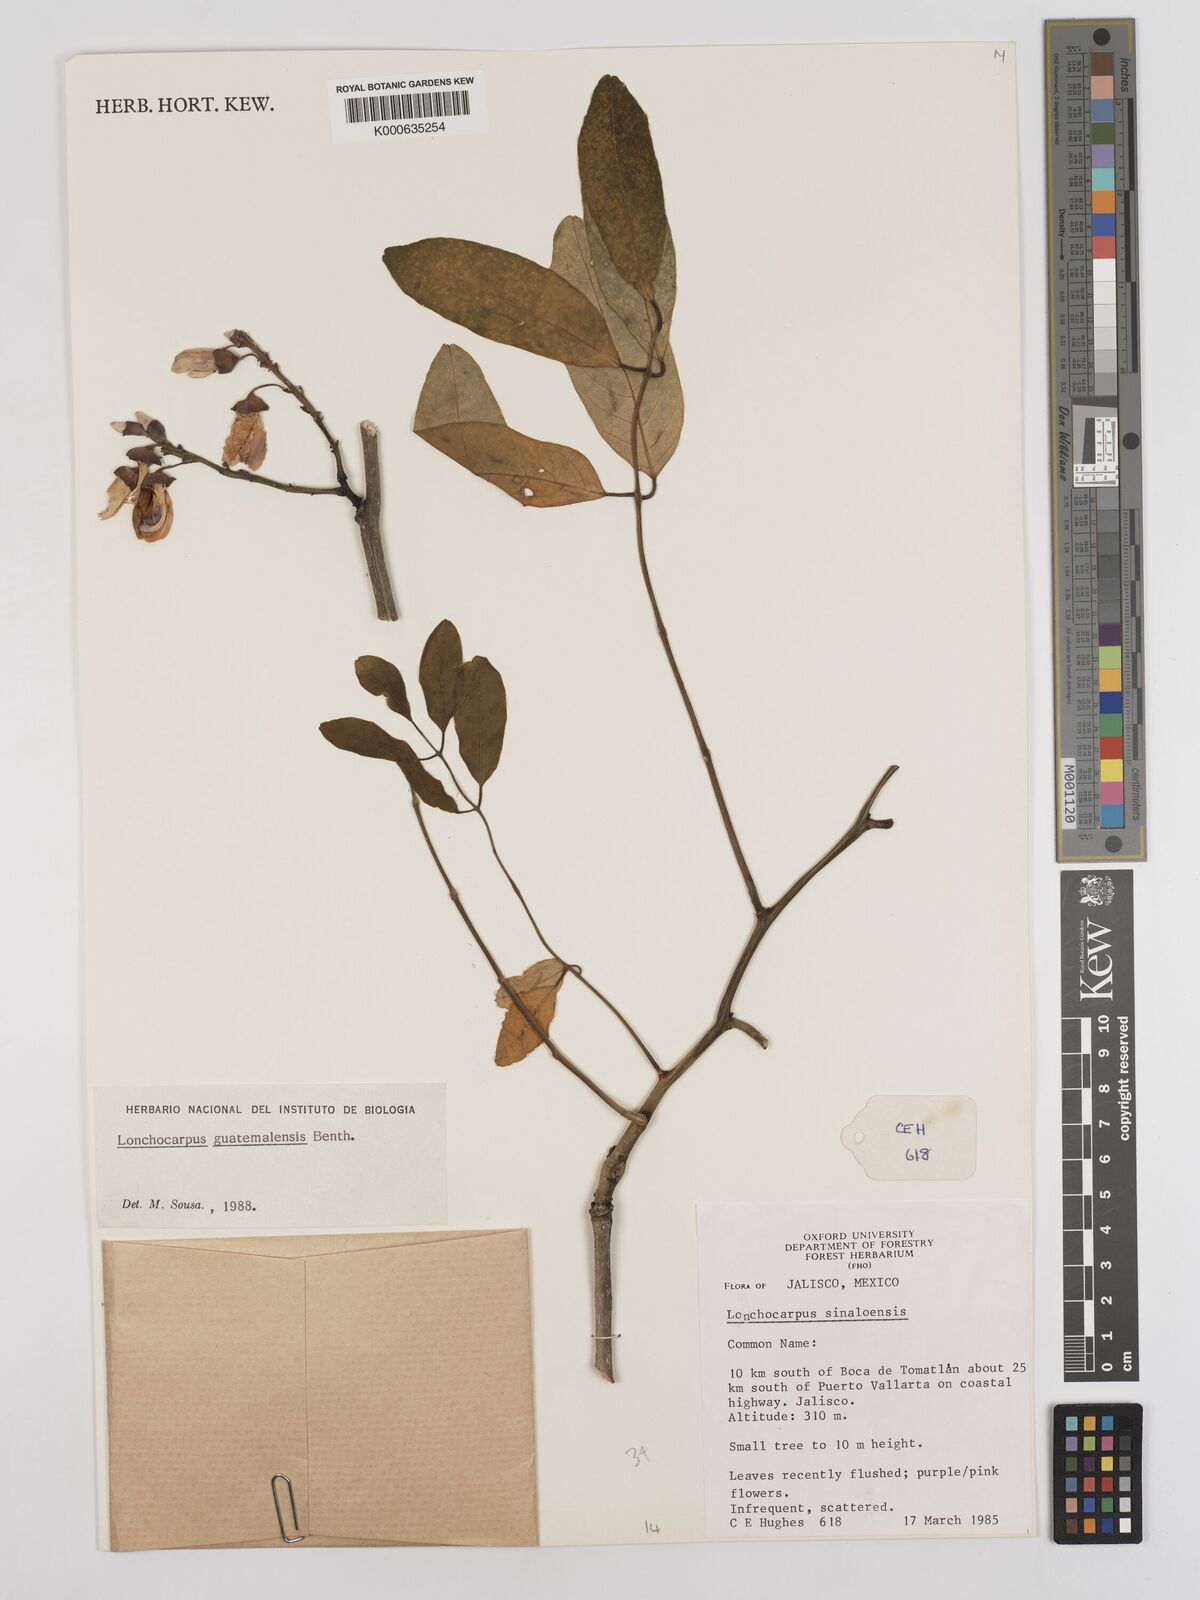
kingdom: Plantae
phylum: Tracheophyta
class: Magnoliopsida
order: Fabales
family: Fabaceae
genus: Lonchocarpus
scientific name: Lonchocarpus guatemalensis
